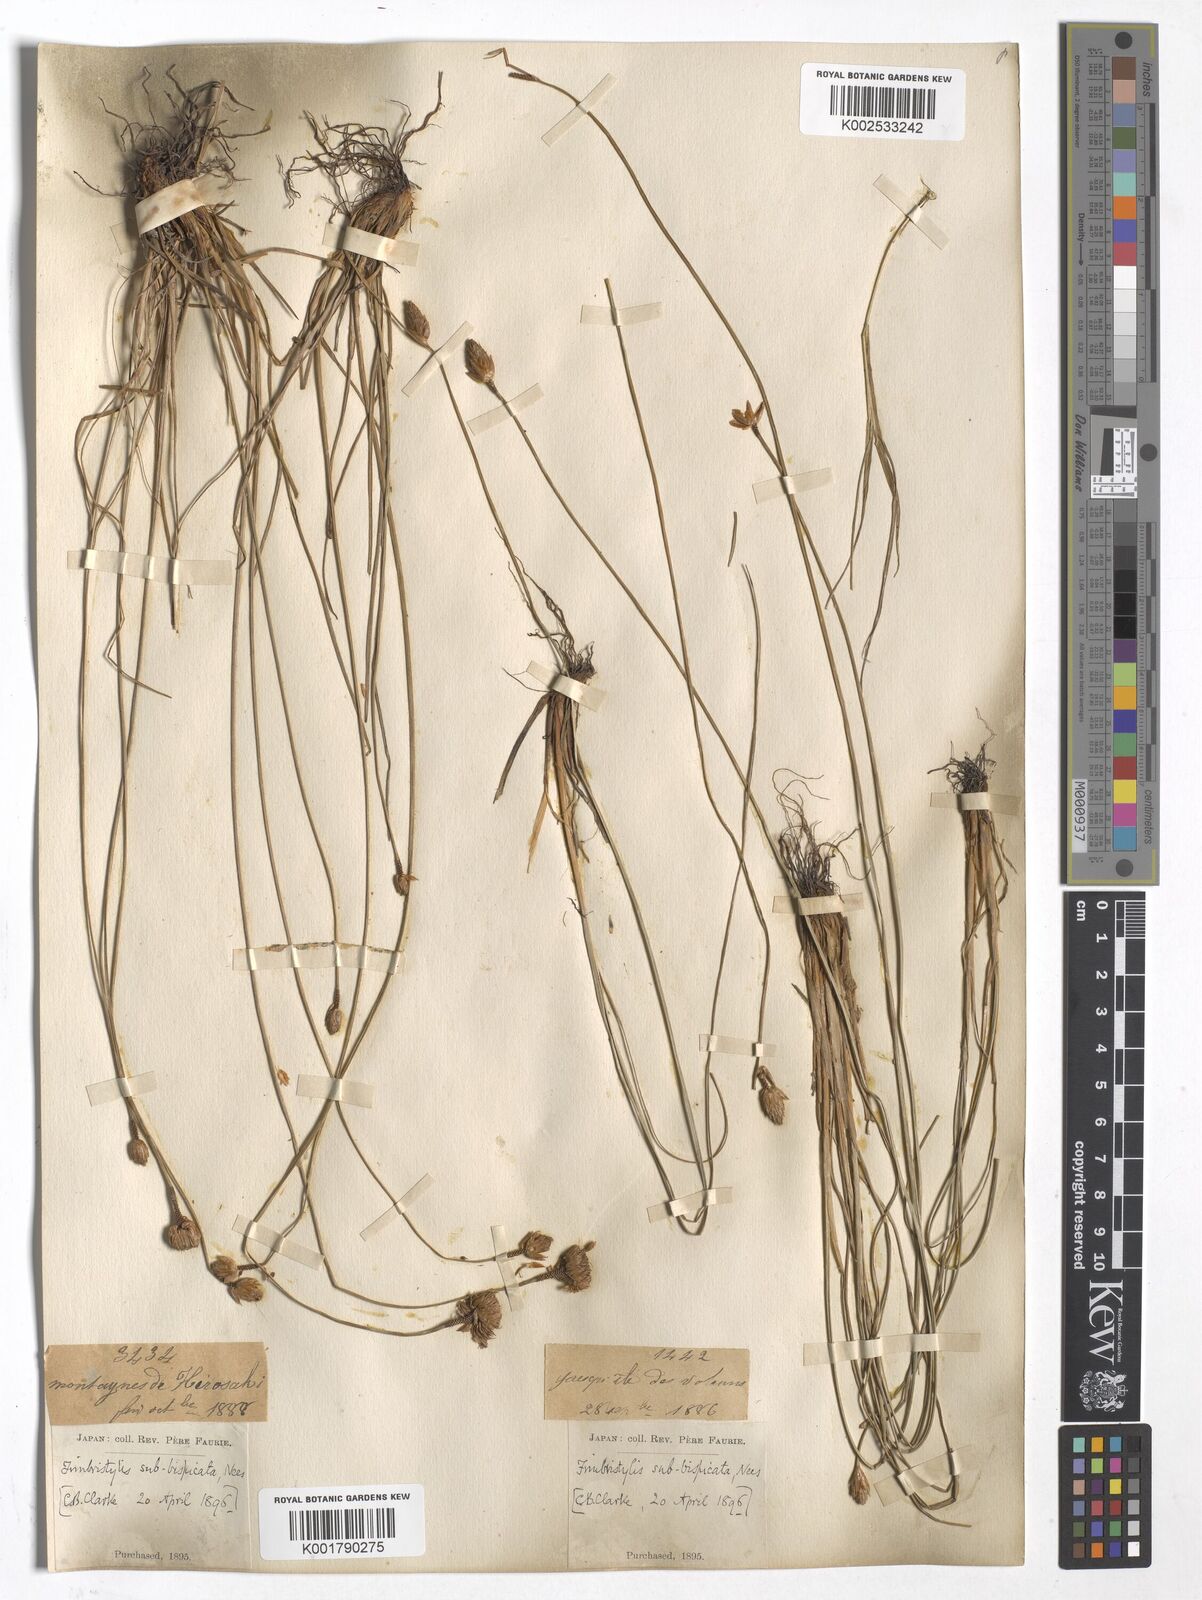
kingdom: Plantae
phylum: Tracheophyta
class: Liliopsida
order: Poales
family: Cyperaceae
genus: Fimbristylis
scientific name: Fimbristylis tristachya
